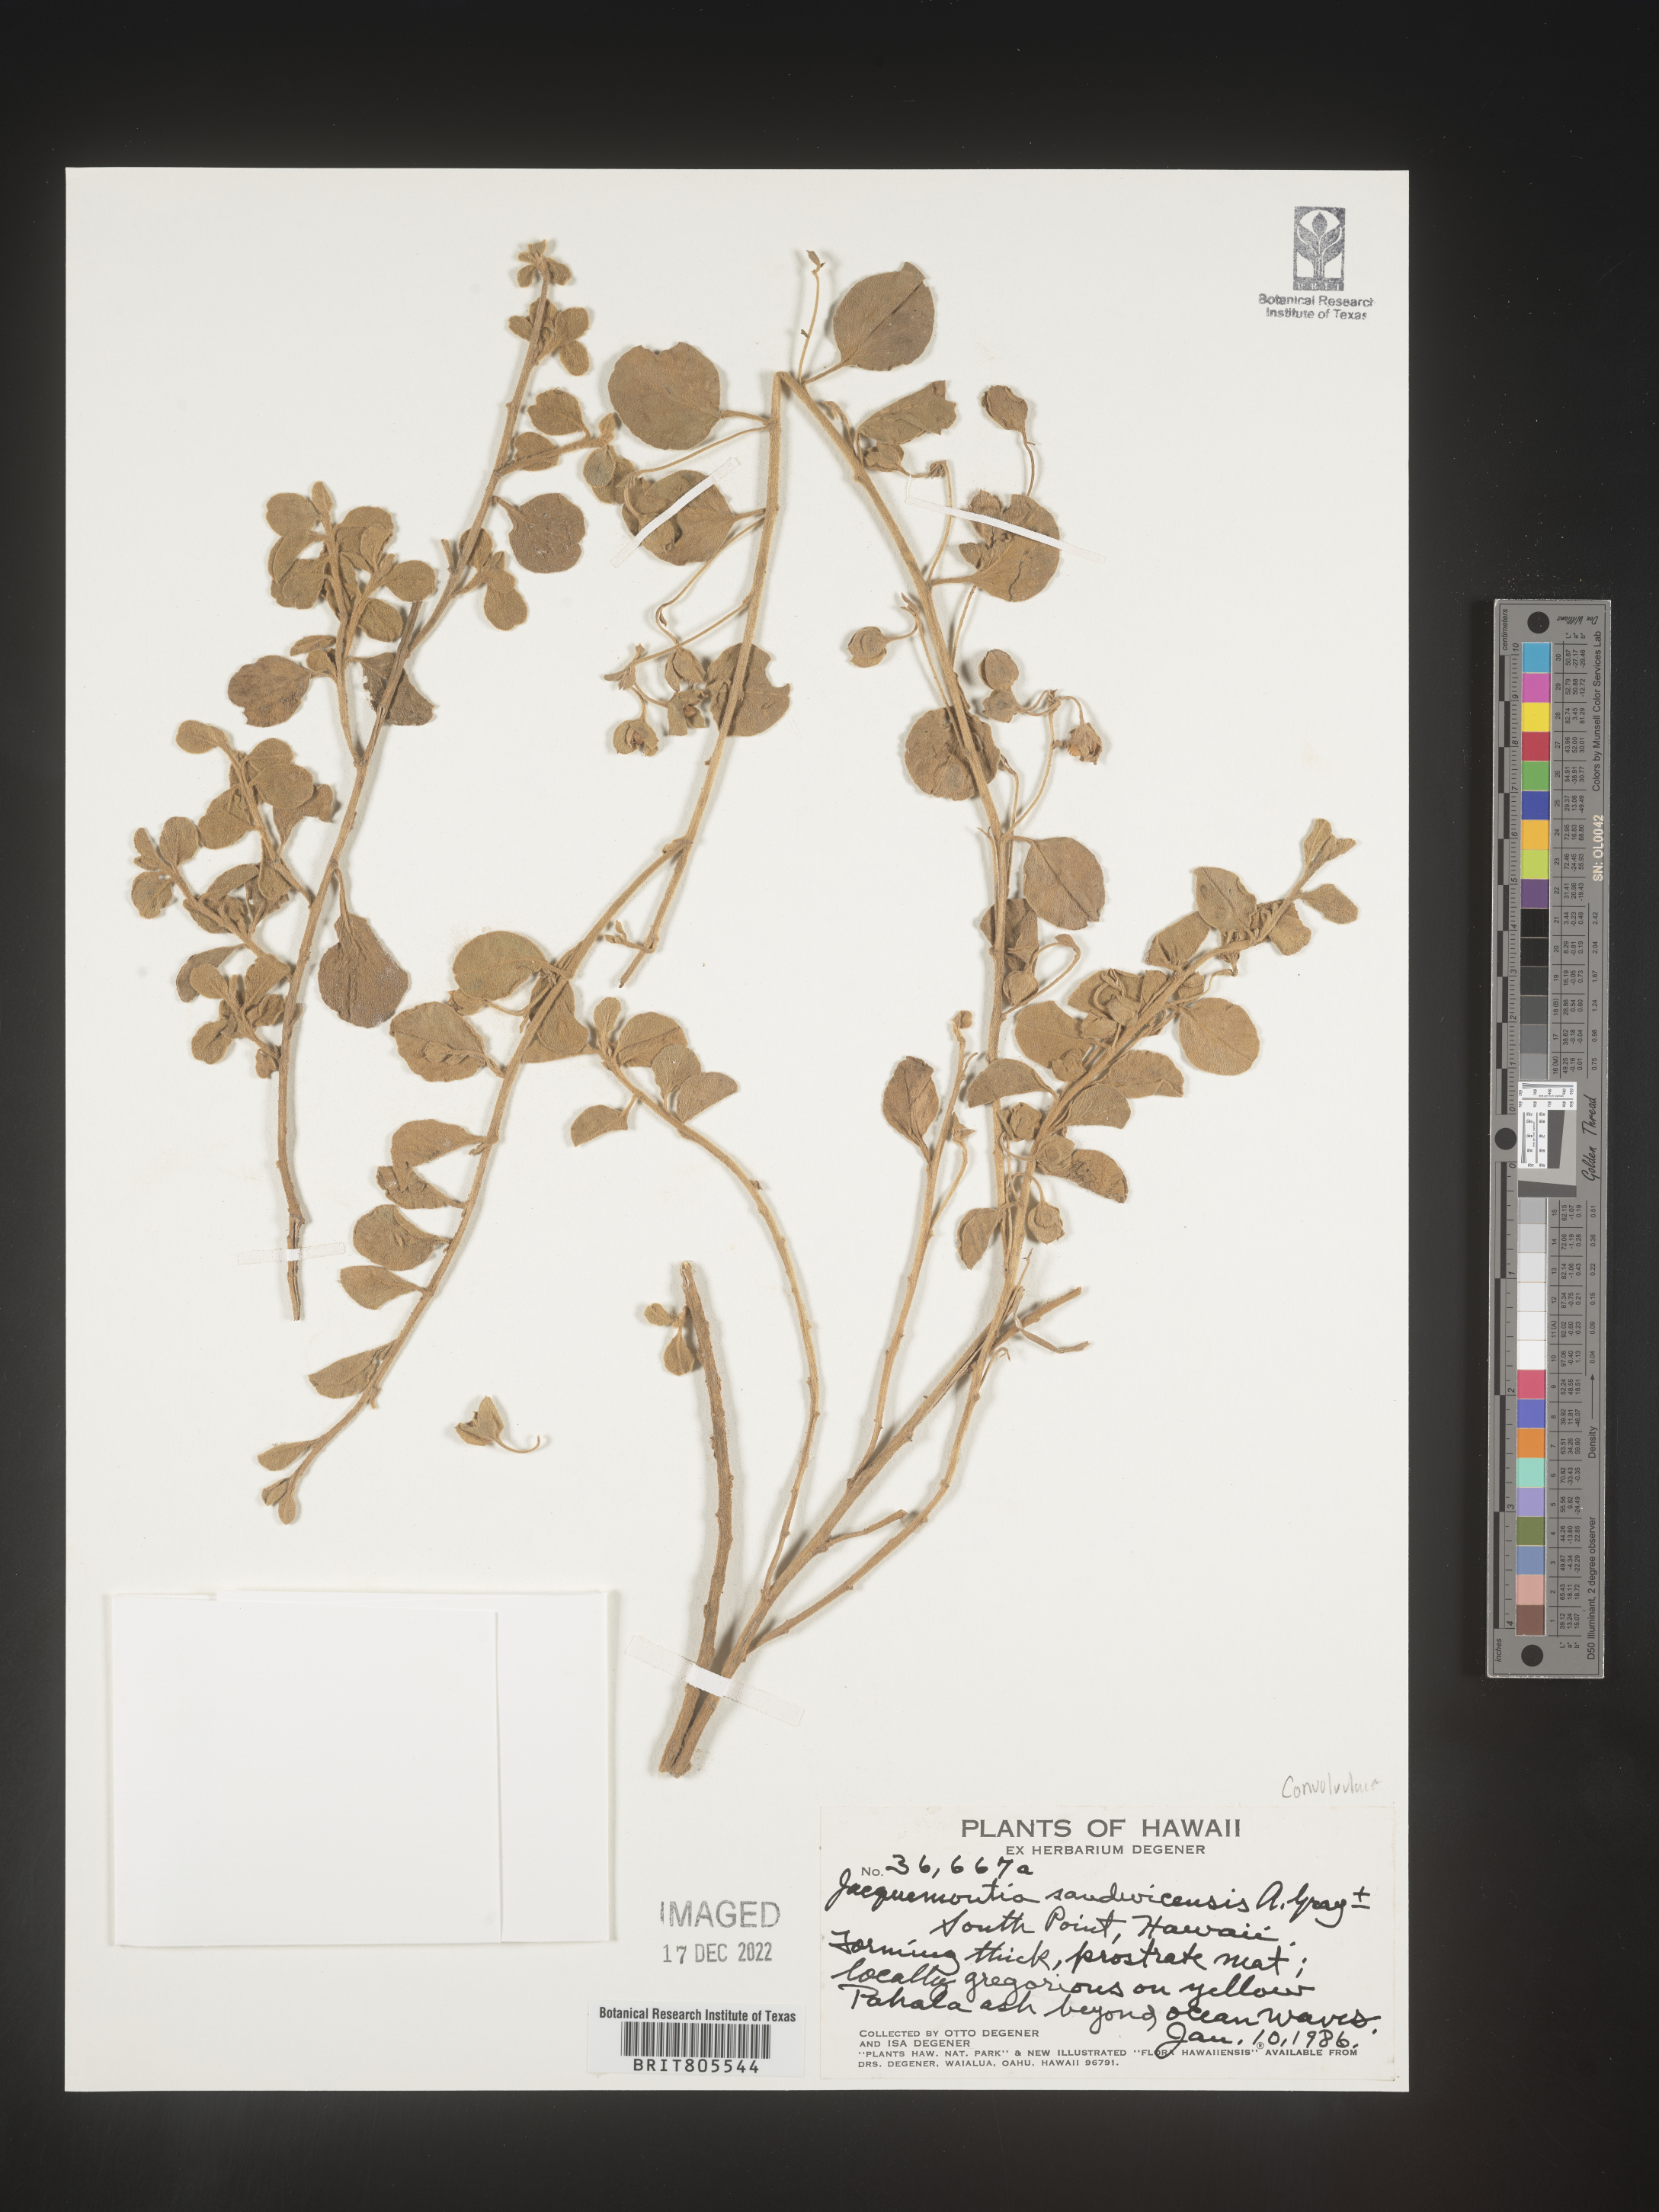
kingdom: Plantae
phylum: Tracheophyta
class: Magnoliopsida
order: Solanales
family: Convolvulaceae
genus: Jacquemontia
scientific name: Jacquemontia
